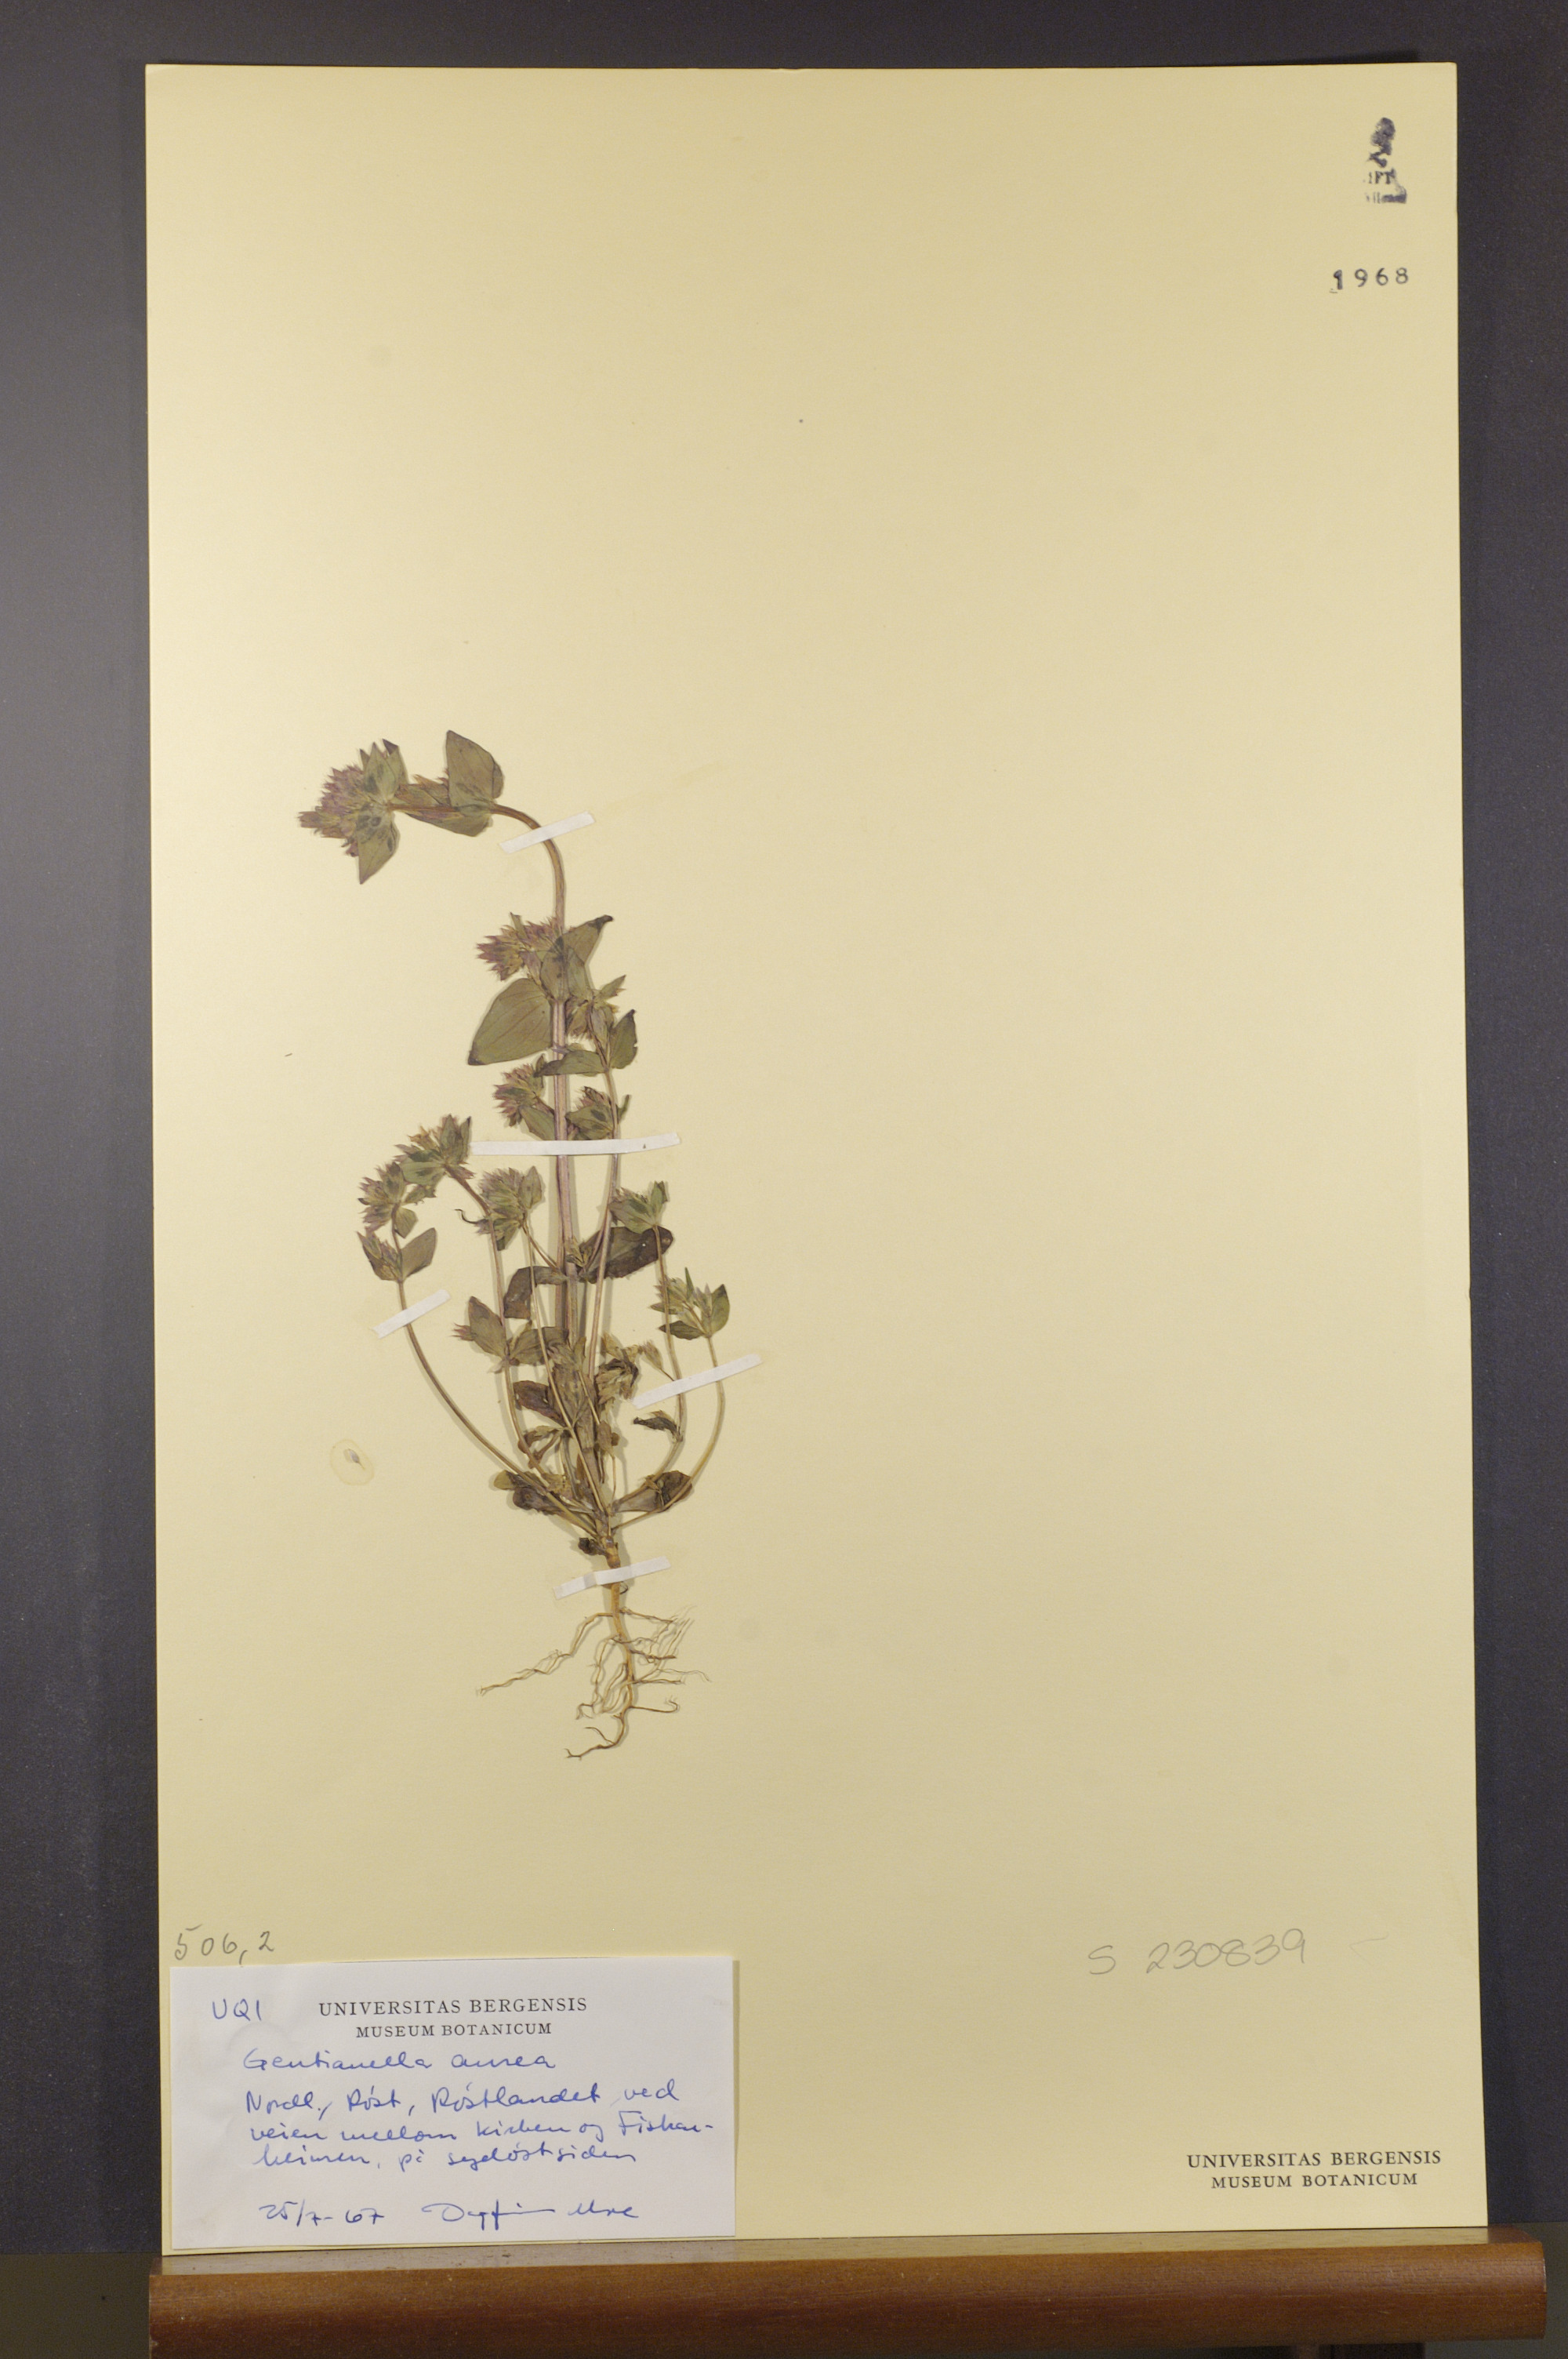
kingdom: Plantae
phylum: Tracheophyta
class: Magnoliopsida
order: Gentianales
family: Gentianaceae
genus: Gentianella
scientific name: Gentianella aurea
